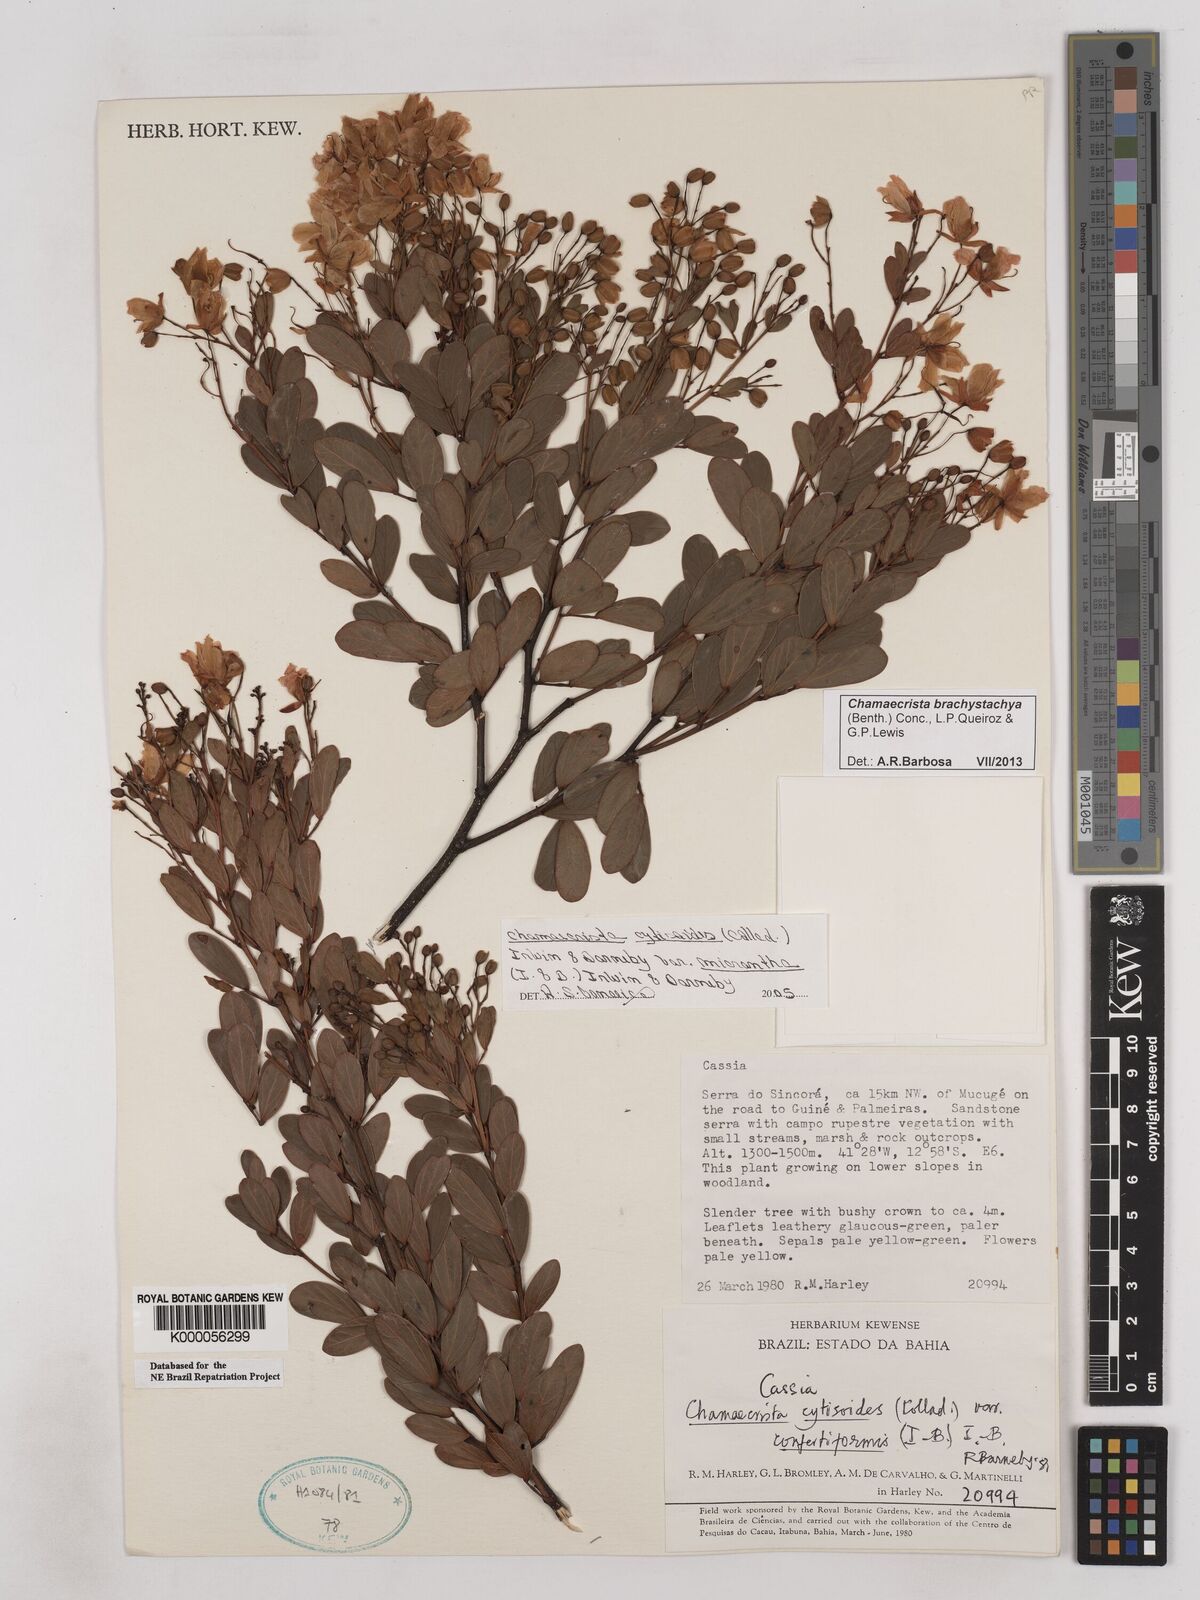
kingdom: Plantae
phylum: Tracheophyta
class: Magnoliopsida
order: Fabales
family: Fabaceae
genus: Chamaecrista
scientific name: Chamaecrista confertiformis
